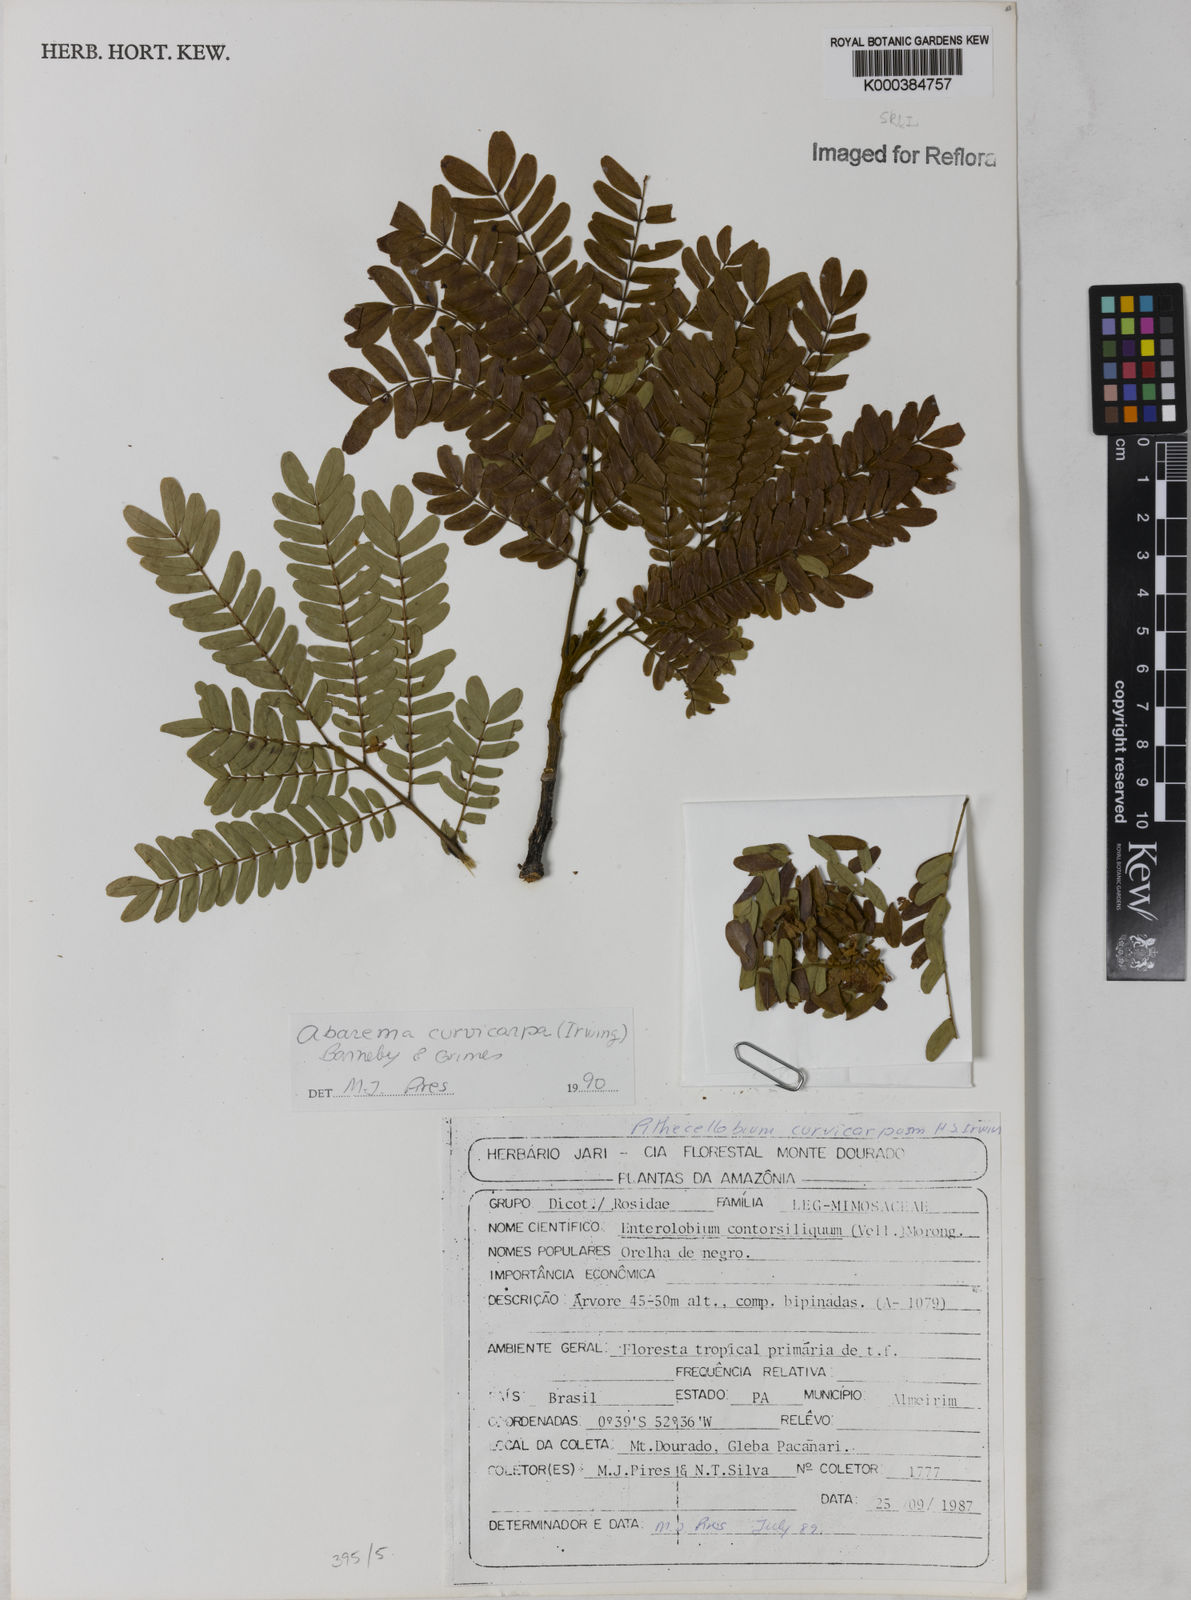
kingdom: Plantae
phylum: Tracheophyta
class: Magnoliopsida
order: Fabales
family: Fabaceae
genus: Jupunba
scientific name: Jupunba curvicarpa
